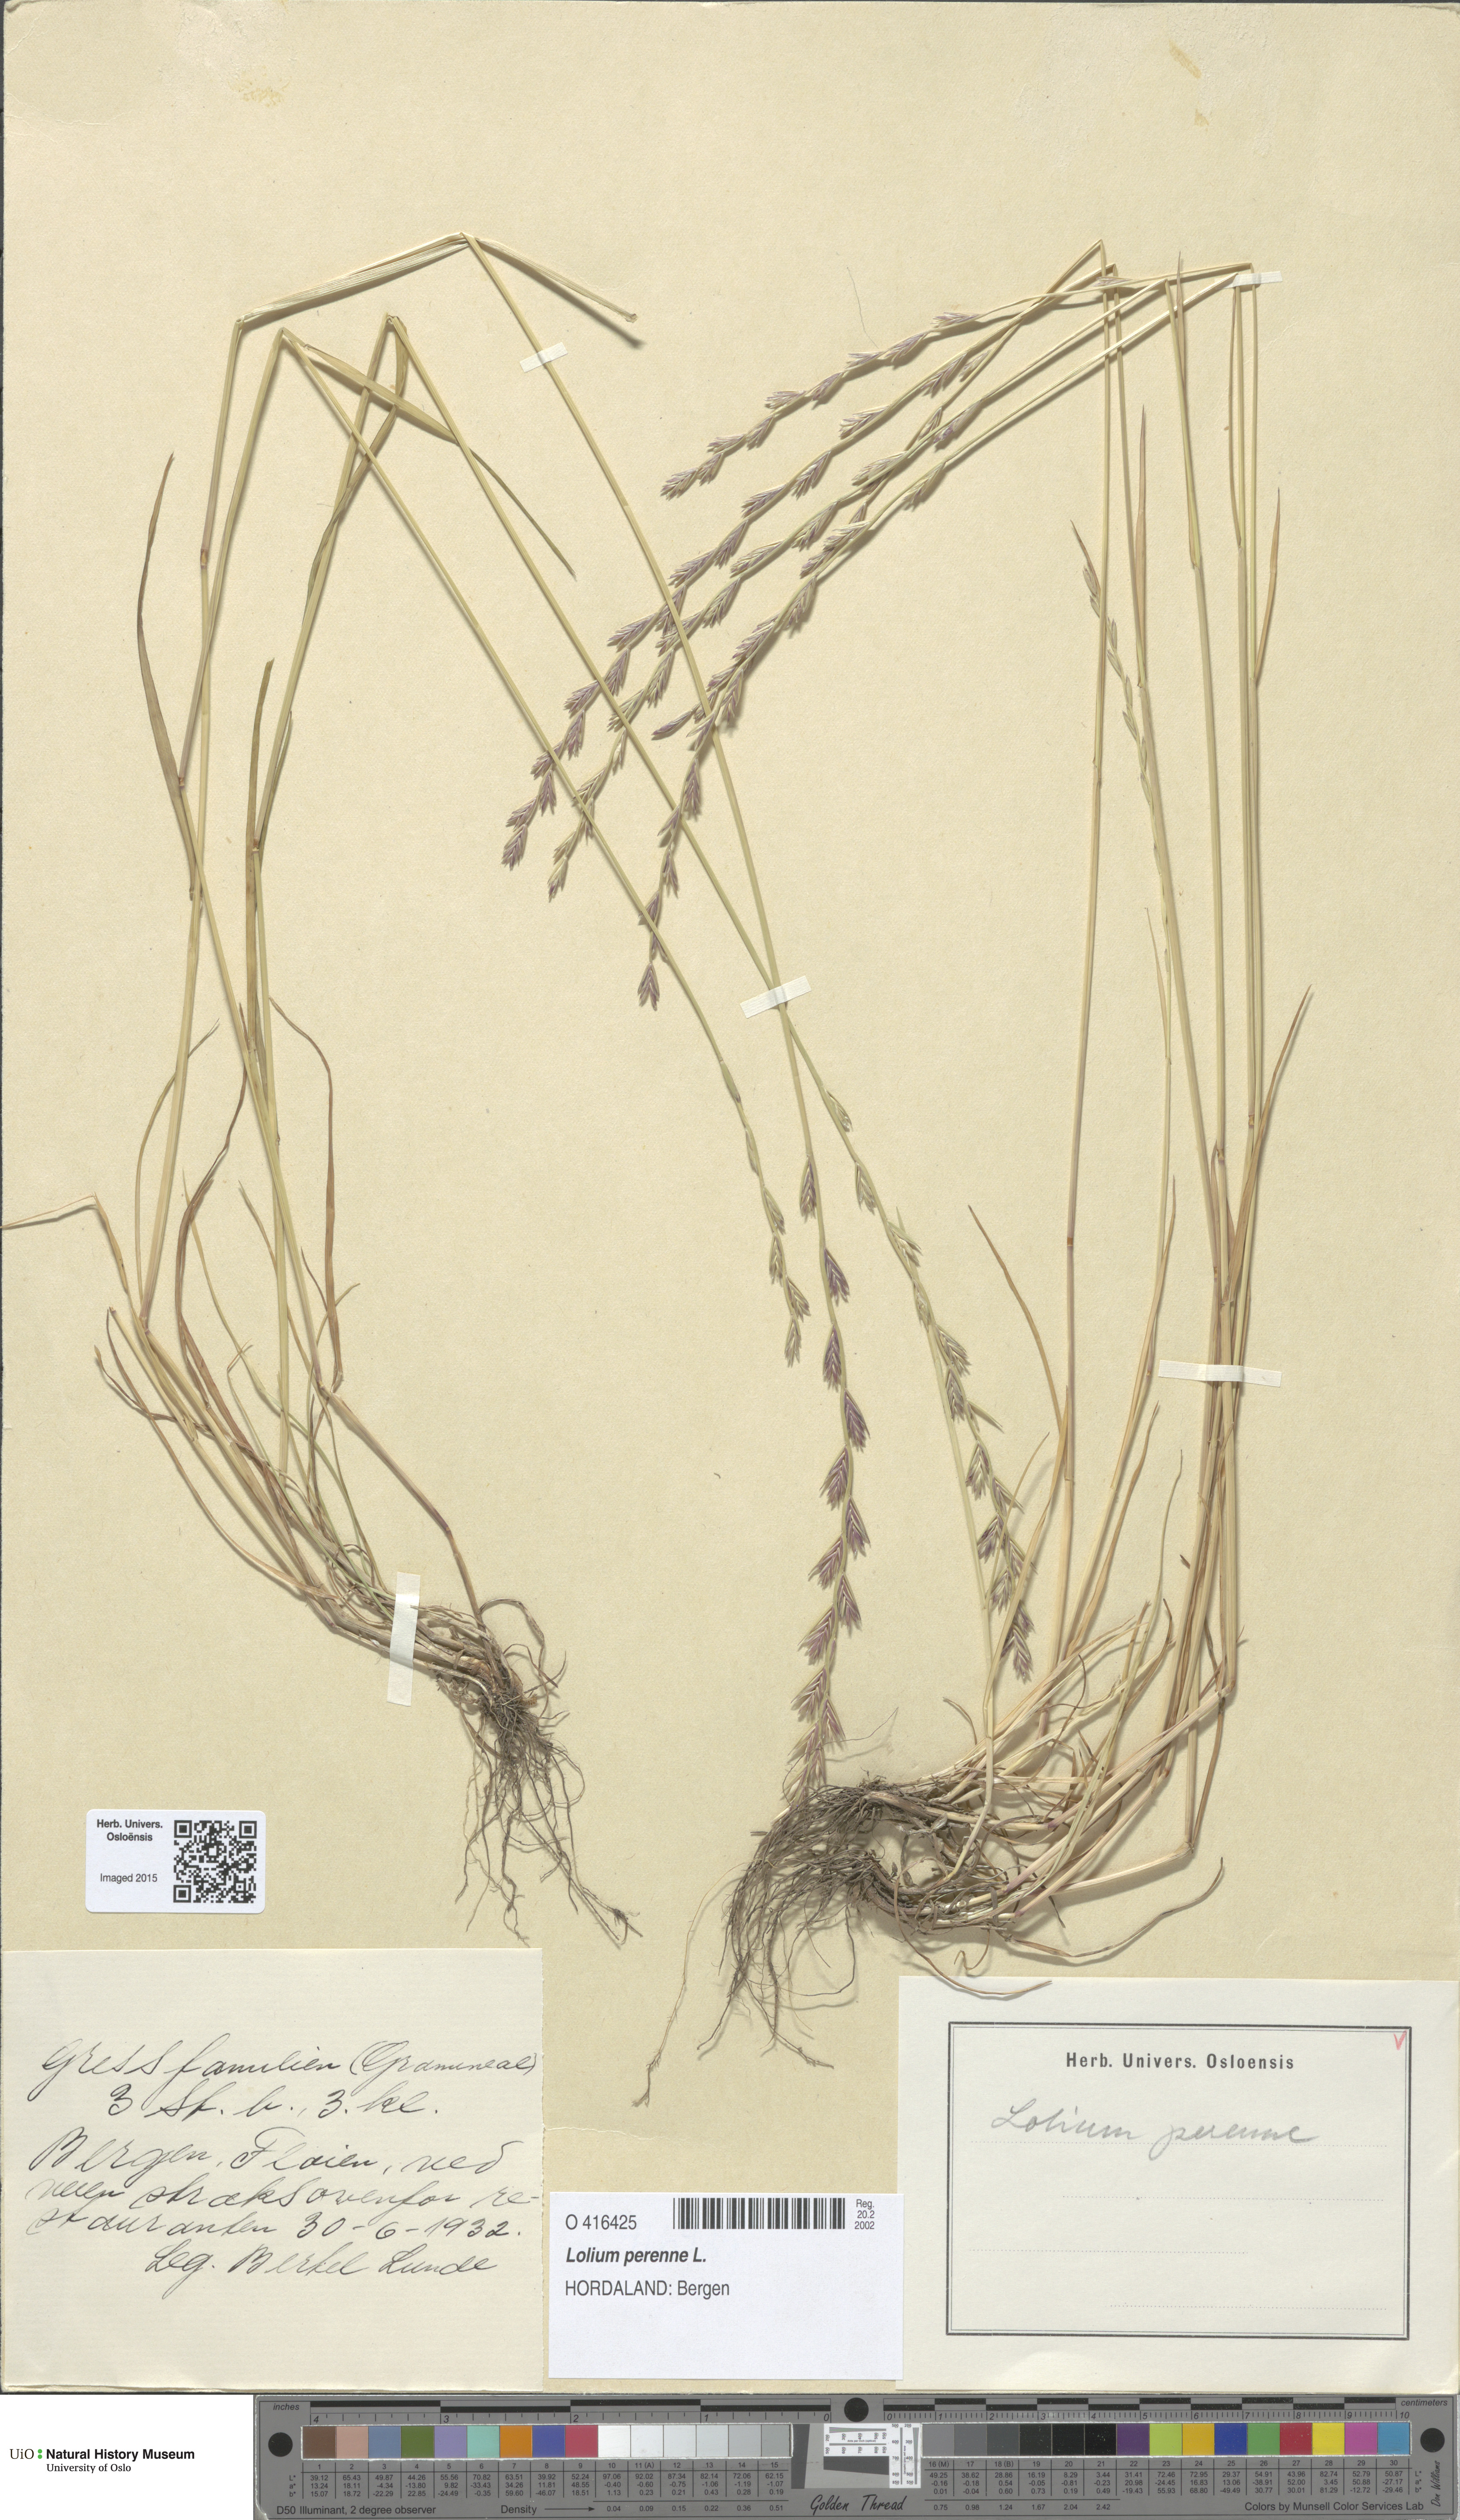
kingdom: Plantae
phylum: Tracheophyta
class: Liliopsida
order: Poales
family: Poaceae
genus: Lolium
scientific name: Lolium perenne
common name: Perennial ryegrass
